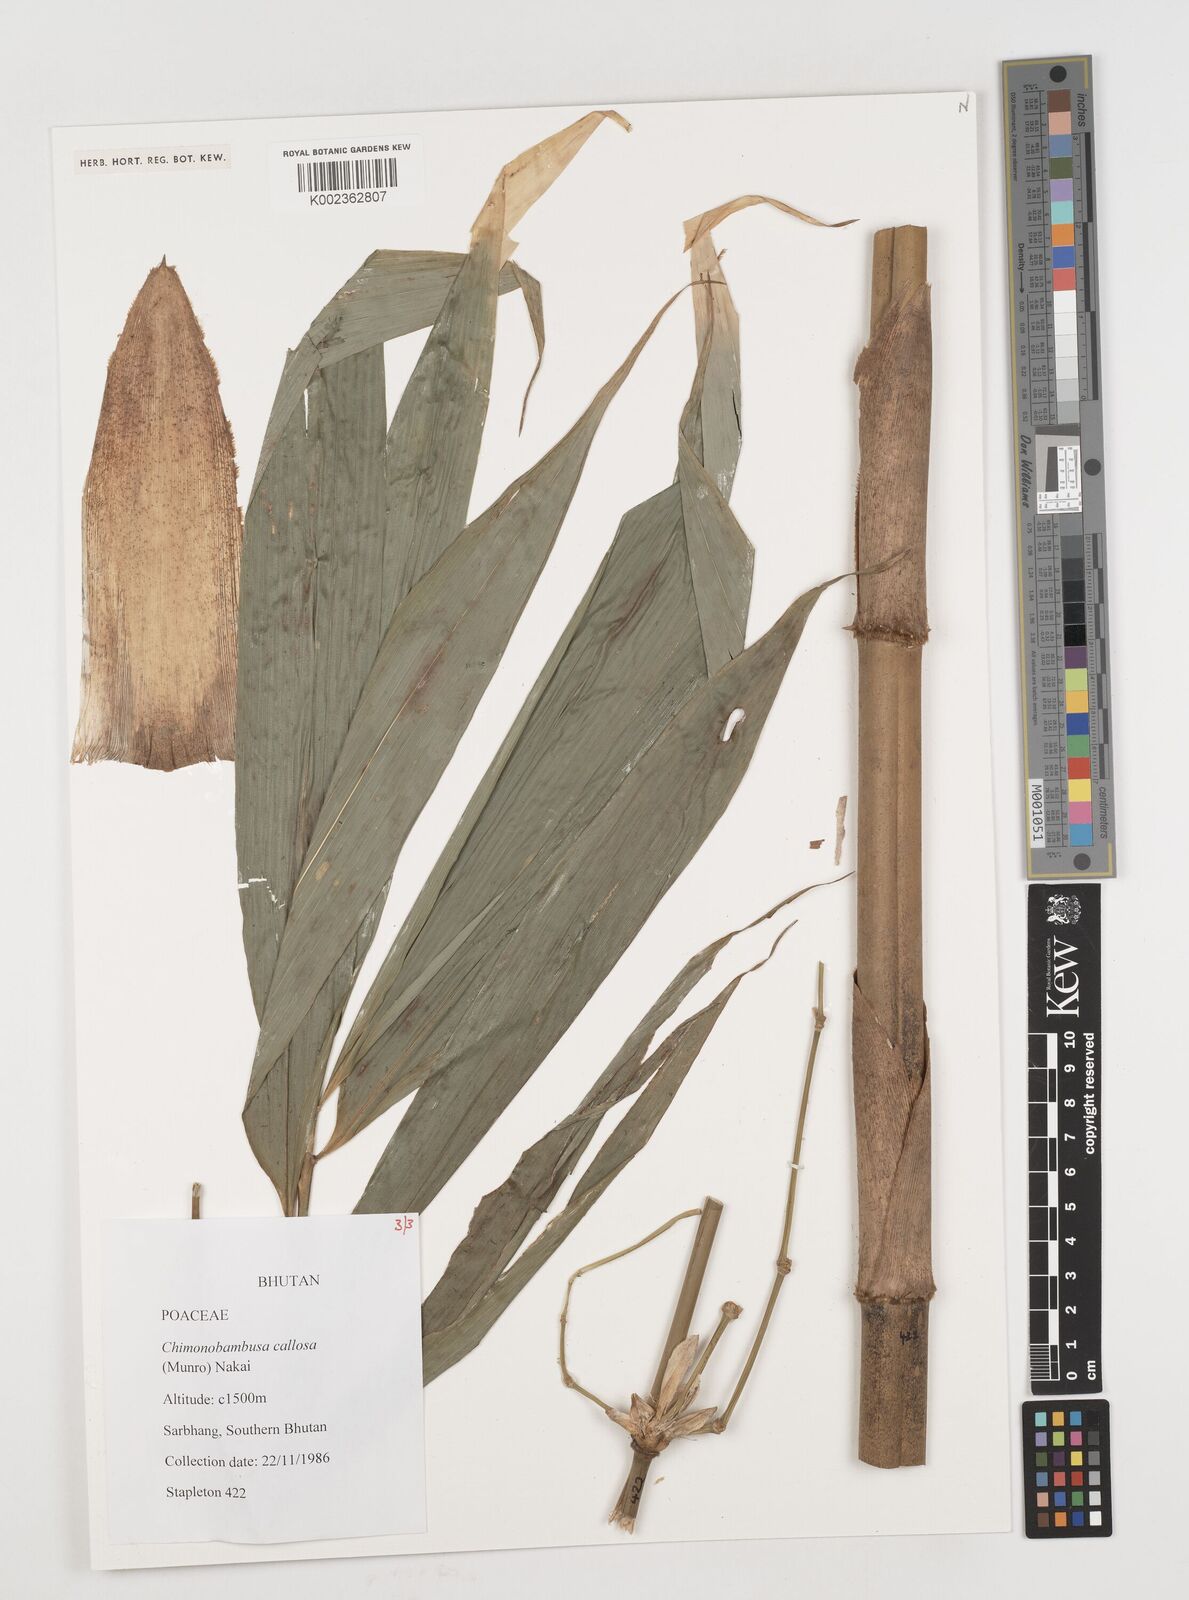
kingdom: Plantae
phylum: Tracheophyta
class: Liliopsida
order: Poales
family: Poaceae
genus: Chimonobambusa
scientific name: Chimonobambusa callosa
